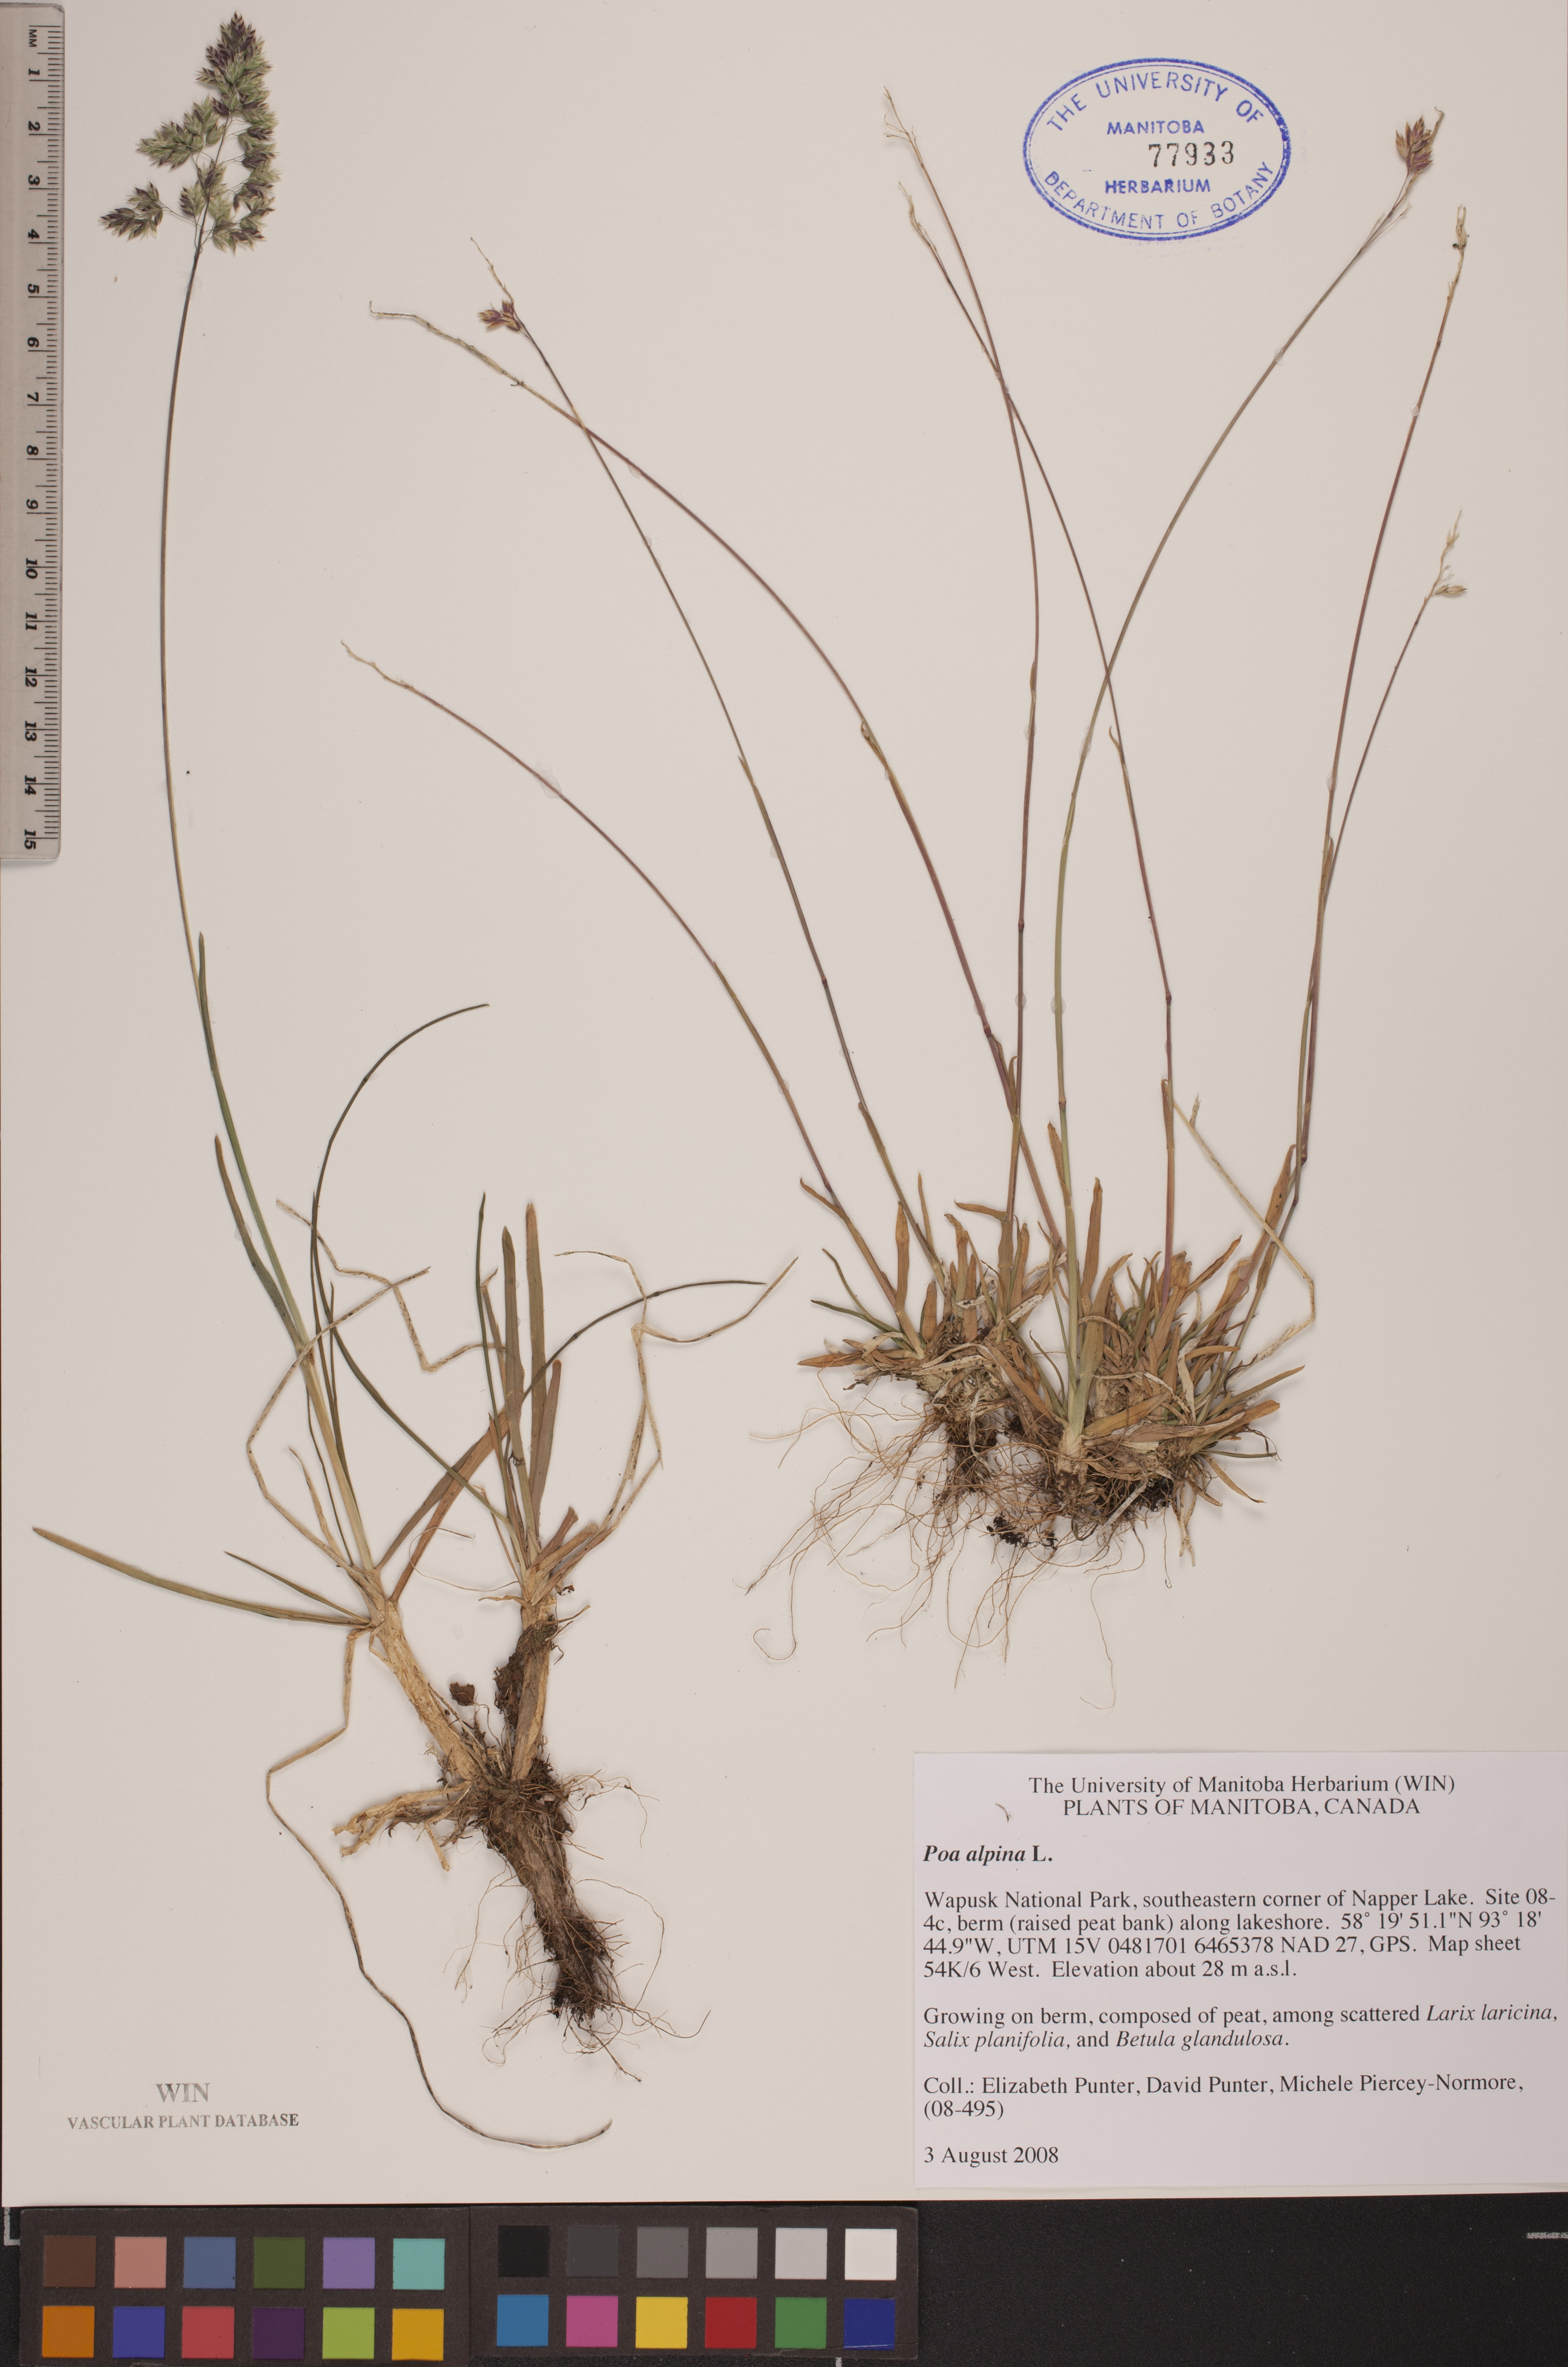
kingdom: Plantae
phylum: Tracheophyta
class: Liliopsida
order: Poales
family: Poaceae
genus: Poa
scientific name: Poa alpina
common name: Alpine bluegrass
